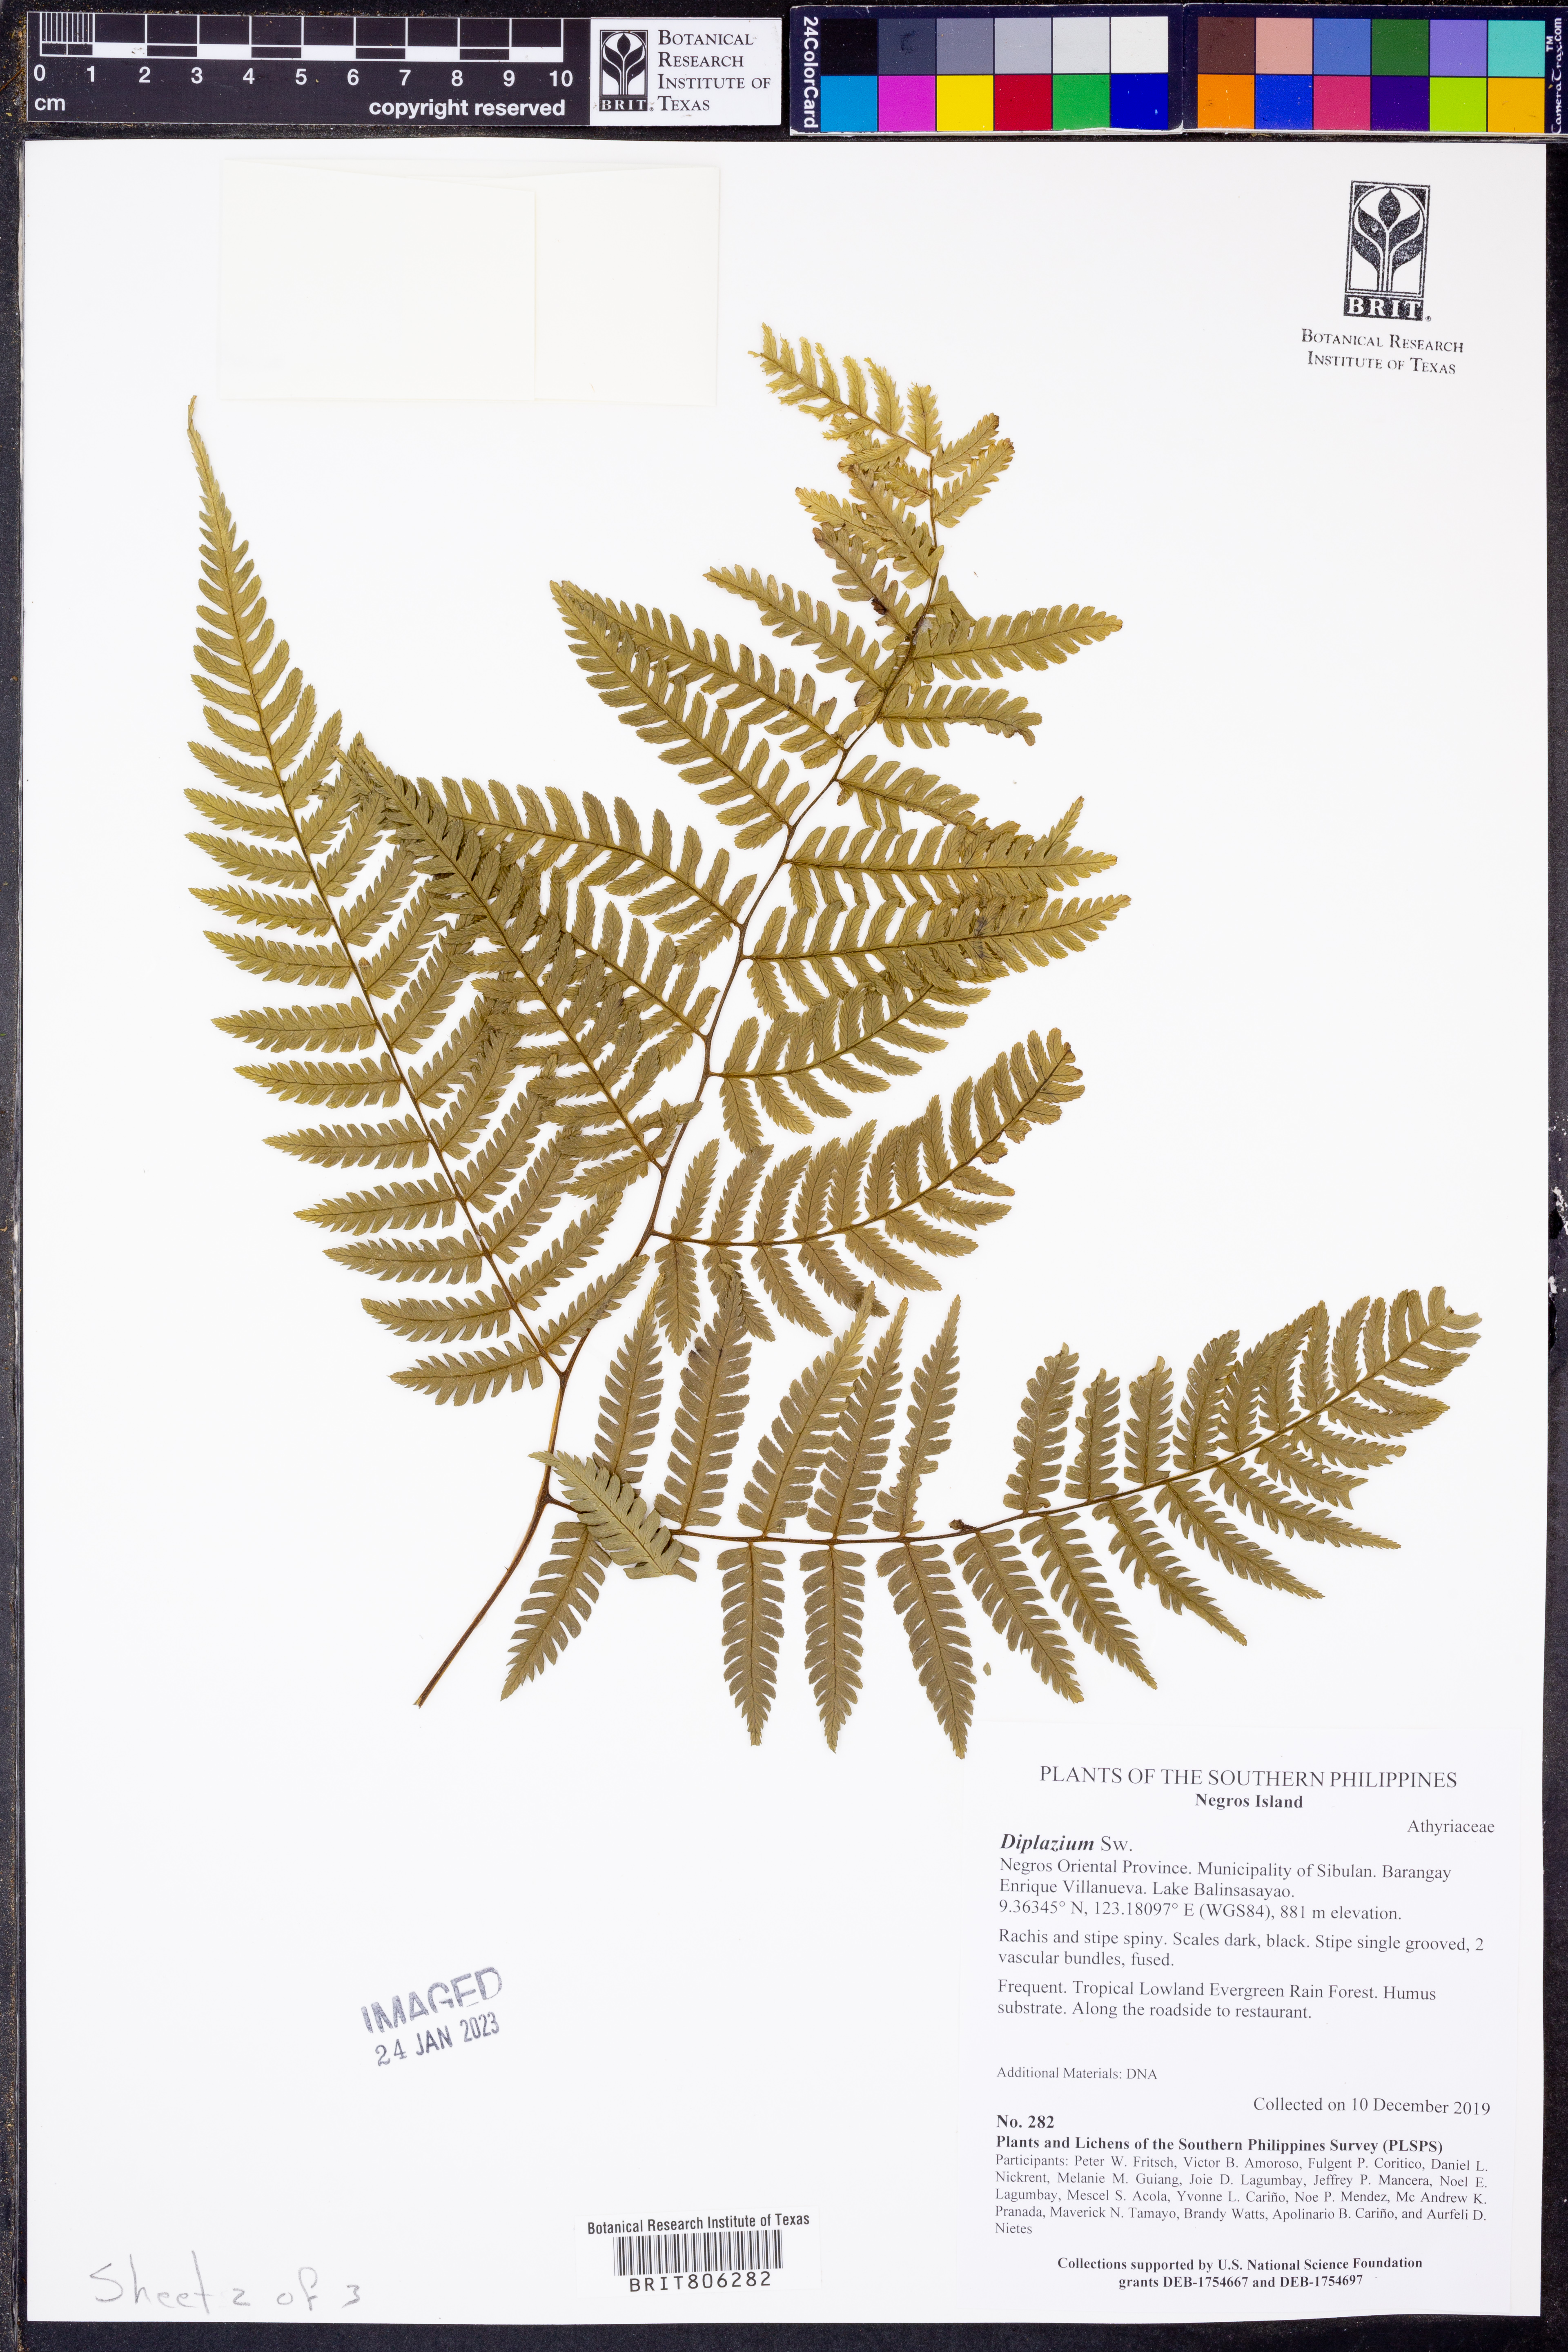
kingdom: Plantae
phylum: Tracheophyta
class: Polypodiopsida
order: Polypodiales
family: Athyriaceae
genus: Diplazium
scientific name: Diplazium
